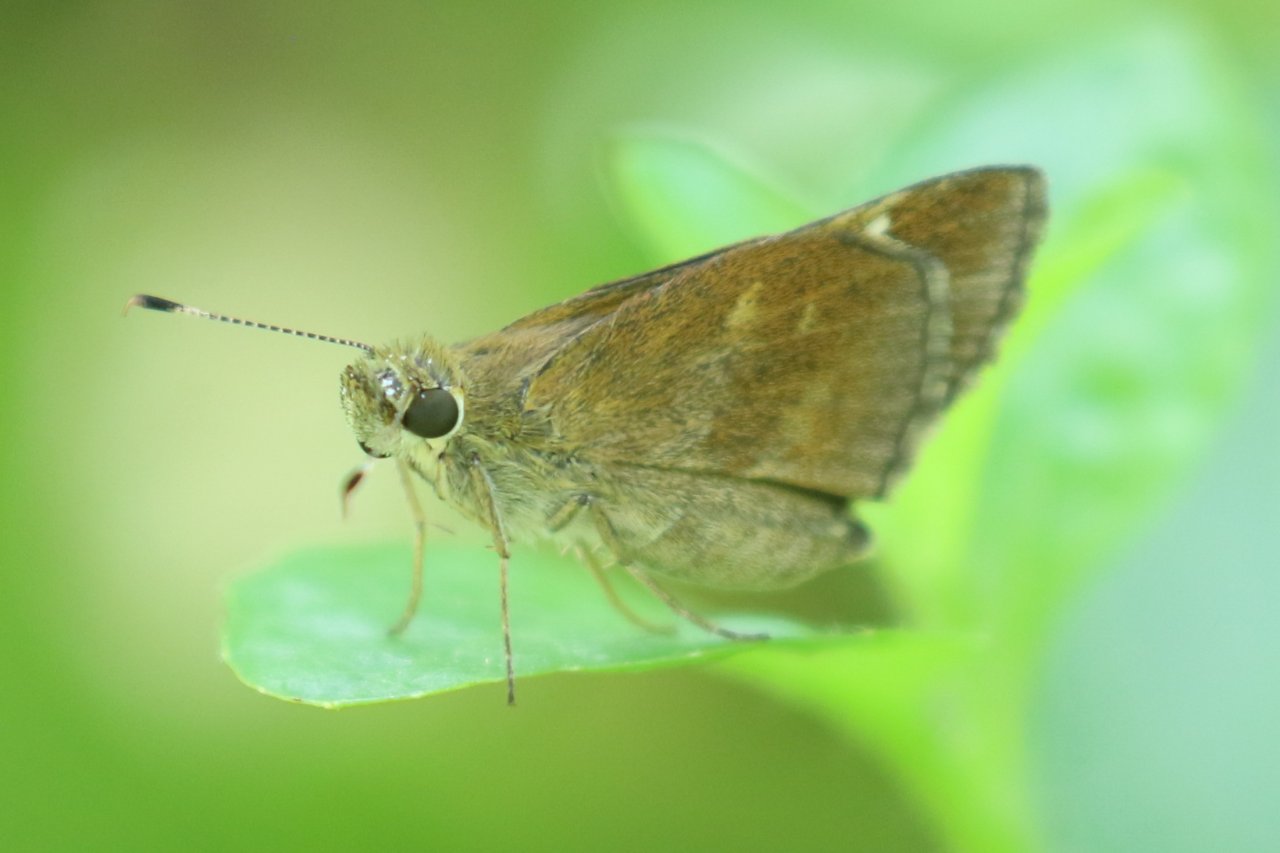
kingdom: Animalia
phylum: Arthropoda
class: Insecta
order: Lepidoptera
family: Hesperiidae
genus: Lerema
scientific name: Lerema accius
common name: Clouded Skipper
